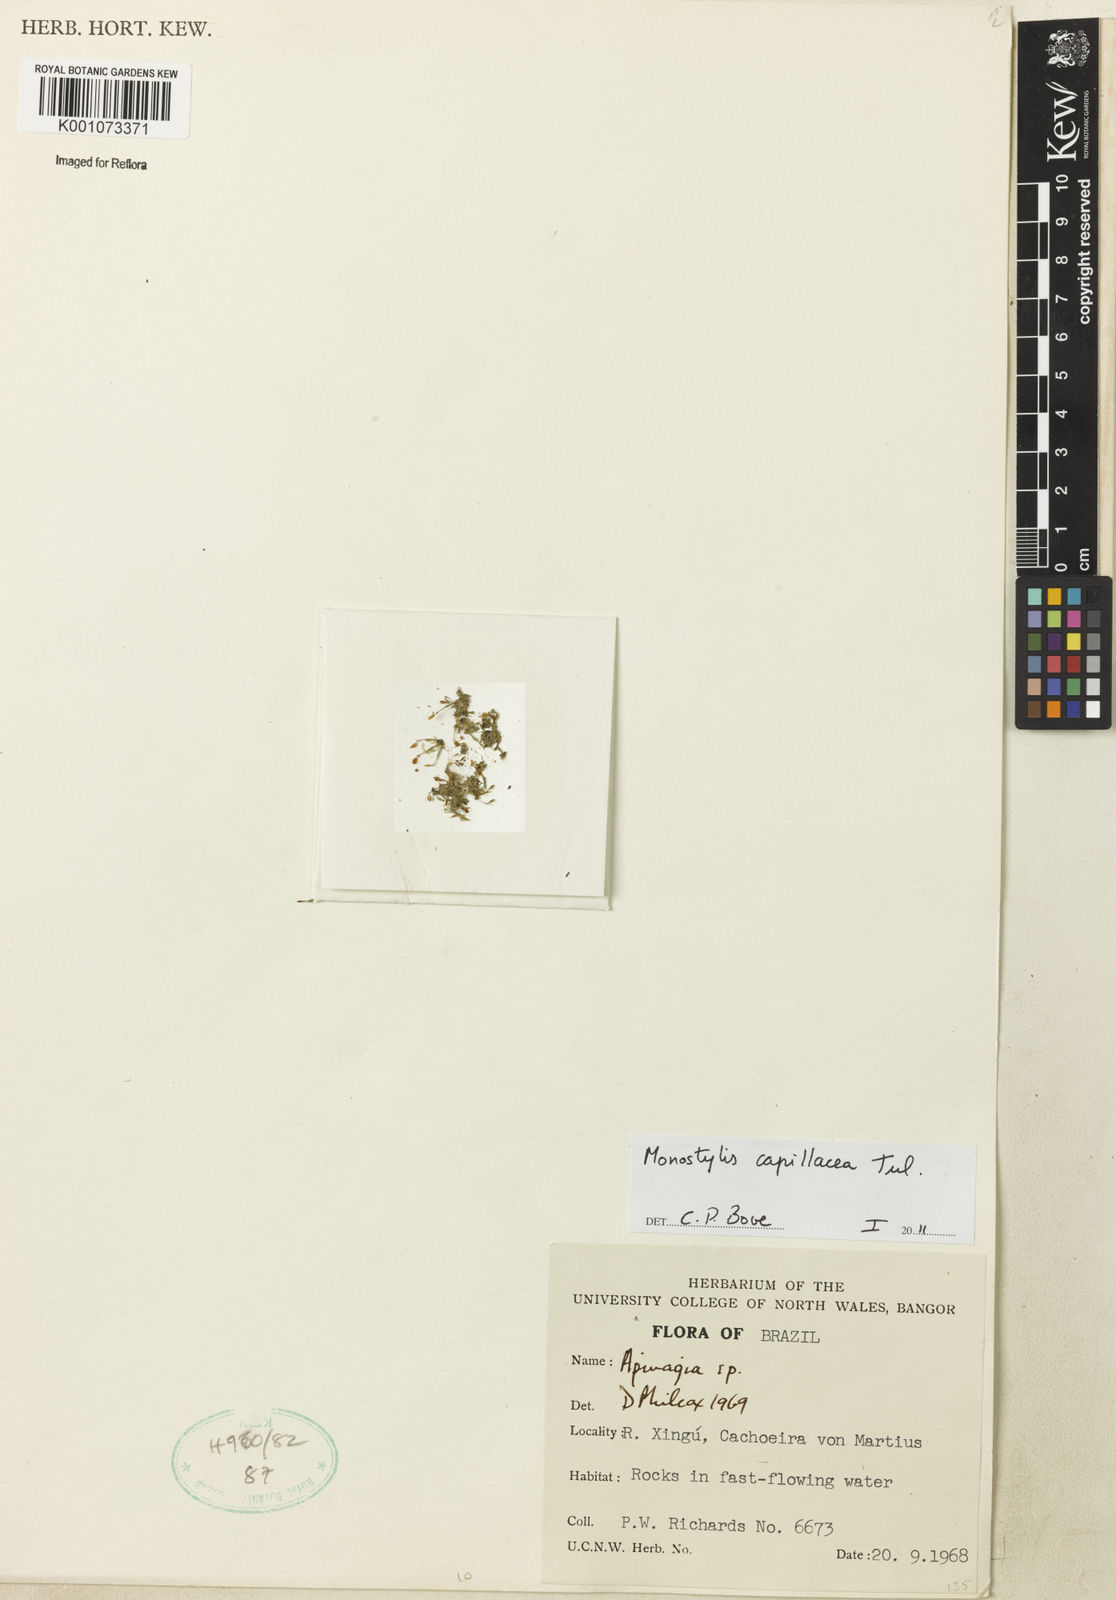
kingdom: Plantae
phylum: Tracheophyta
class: Magnoliopsida
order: Malpighiales
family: Podostemaceae
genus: Lophogyne
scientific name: Lophogyne royenella
